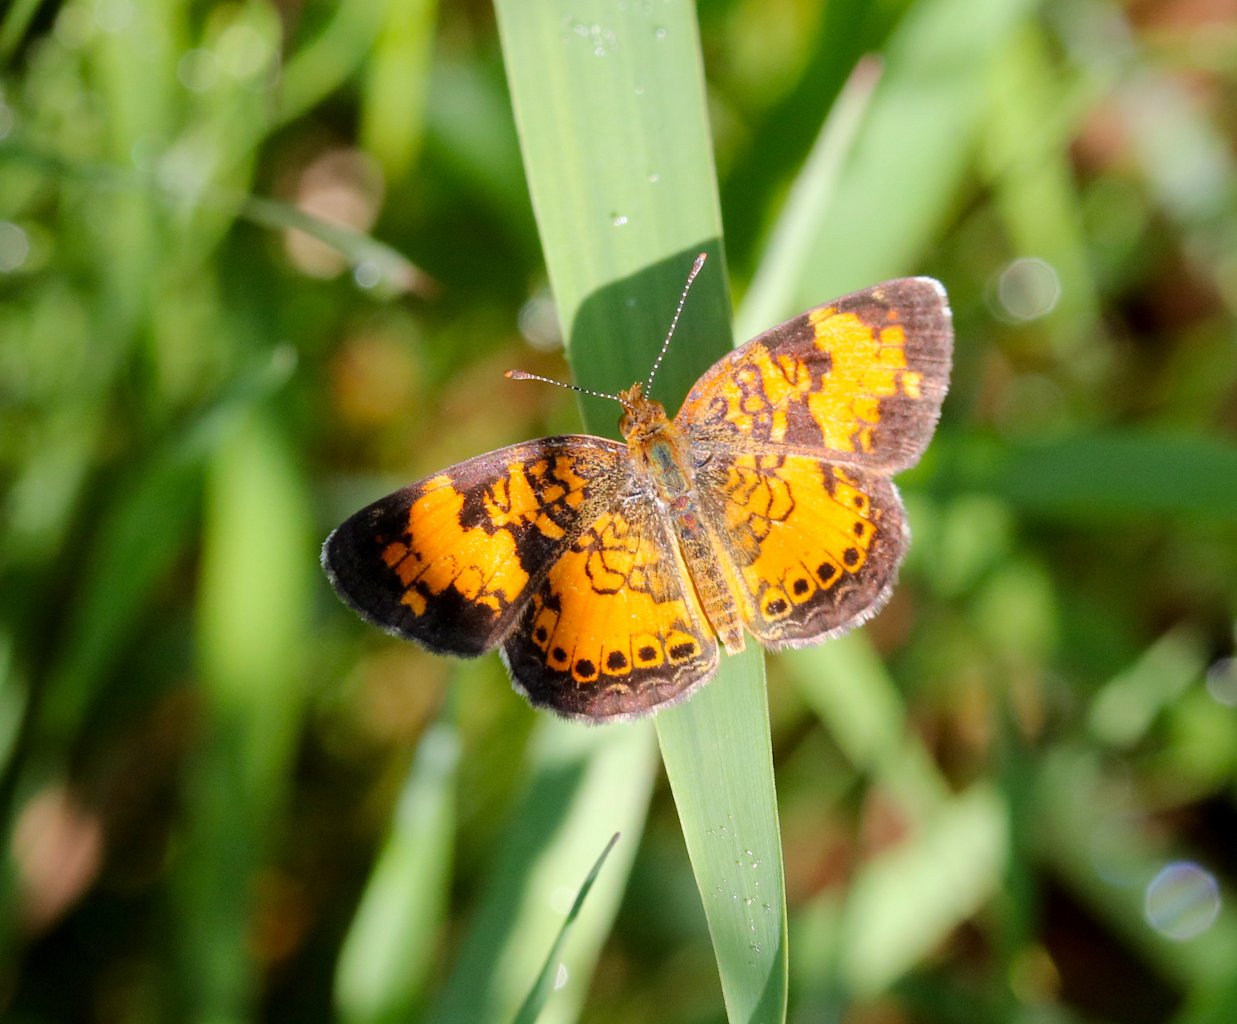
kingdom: Animalia
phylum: Arthropoda
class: Insecta
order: Lepidoptera
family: Nymphalidae
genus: Phyciodes
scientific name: Phyciodes tharos
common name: Northern Crescent
